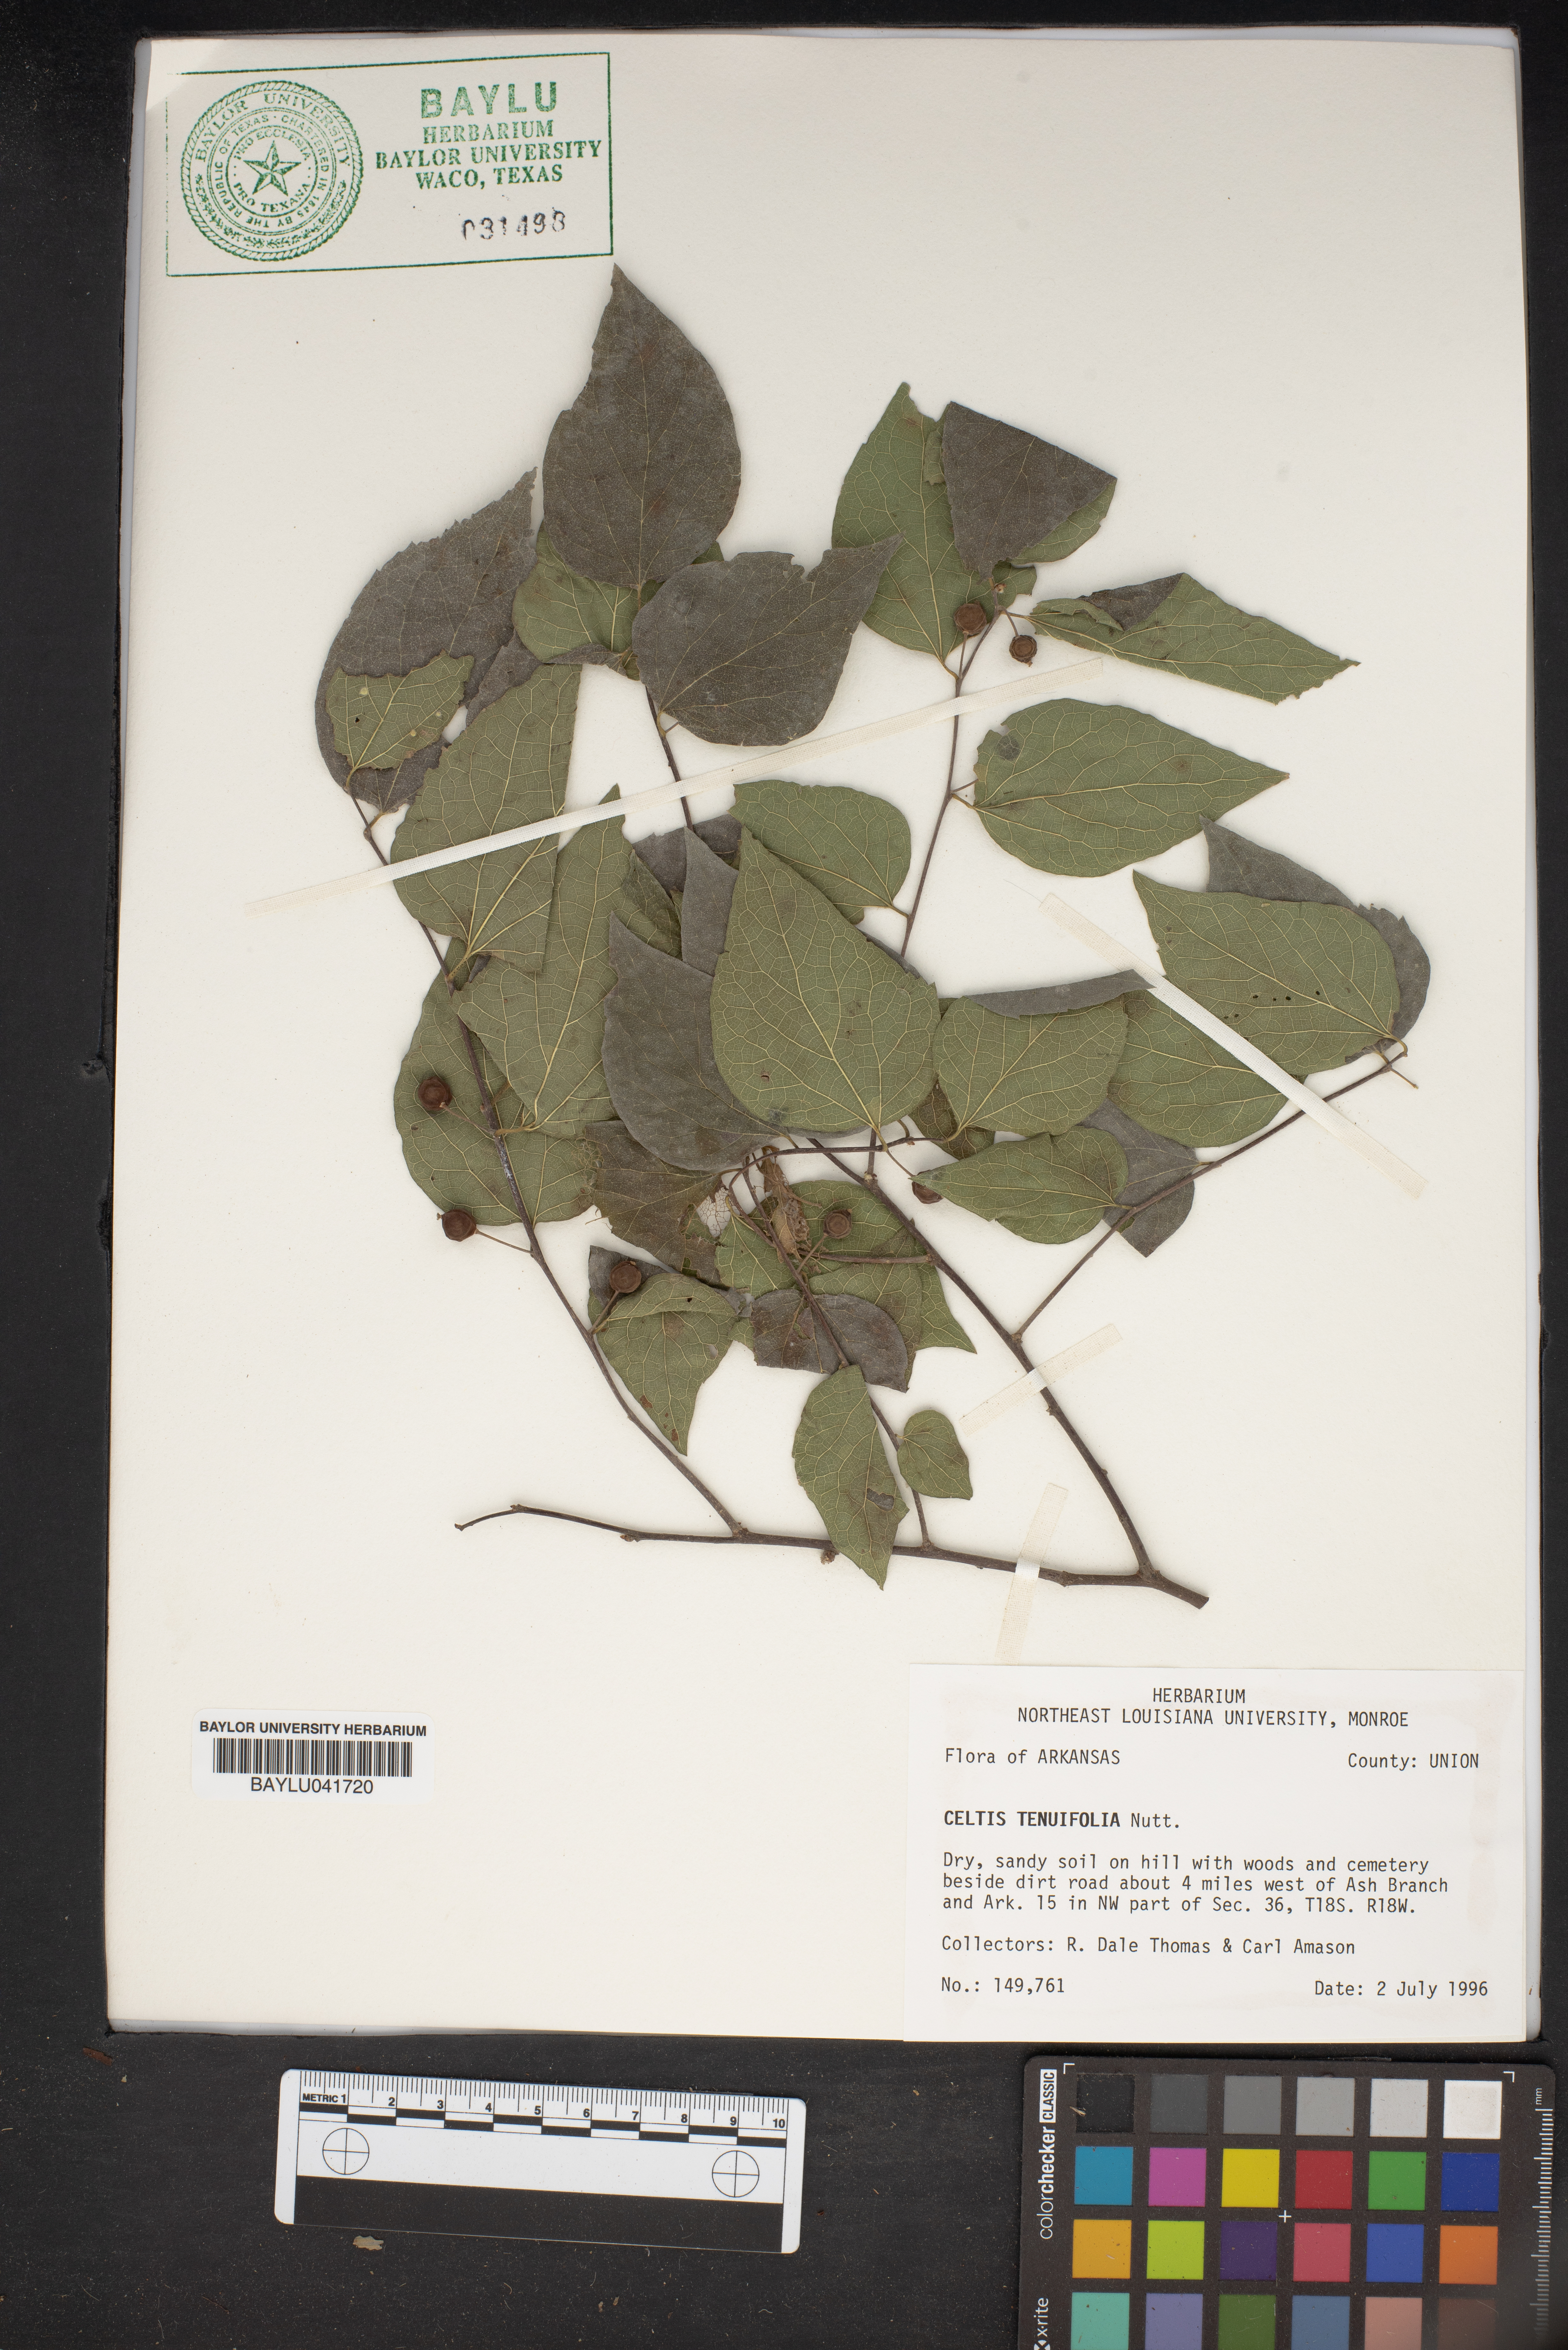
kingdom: Plantae
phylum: Tracheophyta
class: Magnoliopsida
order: Rosales
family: Cannabaceae
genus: Celtis
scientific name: Celtis tenuifolia
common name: Georgia hackberry
